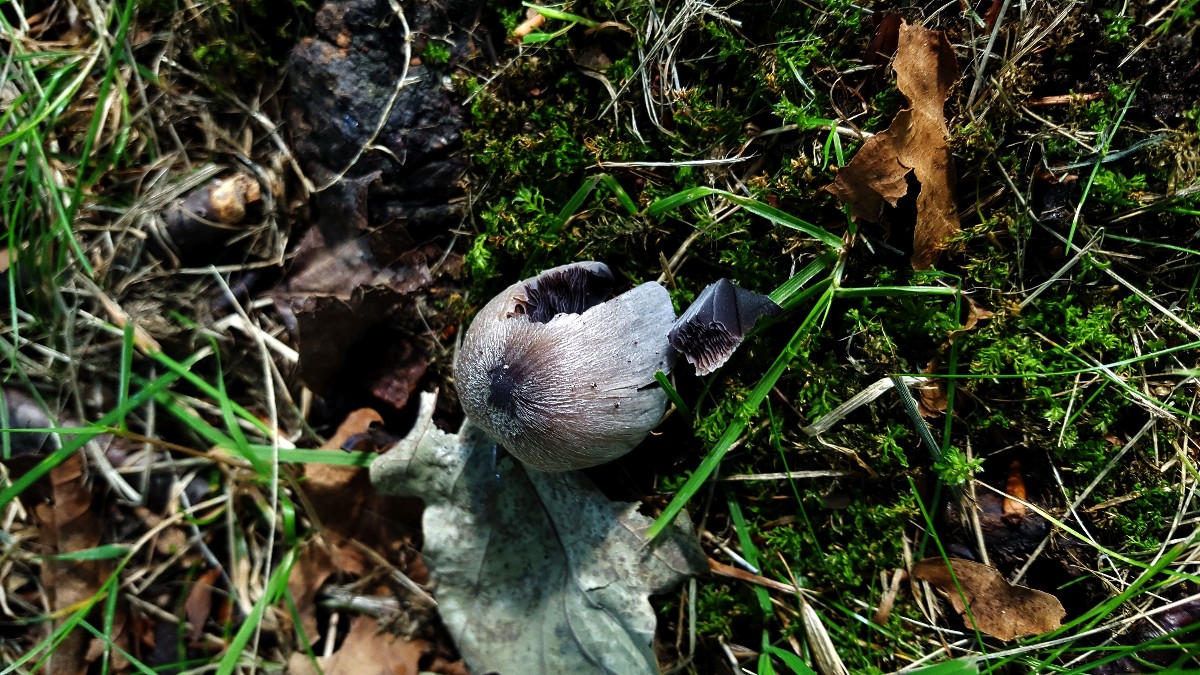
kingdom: Fungi
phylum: Basidiomycota
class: Agaricomycetes
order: Agaricales
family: Psathyrellaceae
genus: Coprinopsis
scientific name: Coprinopsis insignis
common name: stor blækhat
